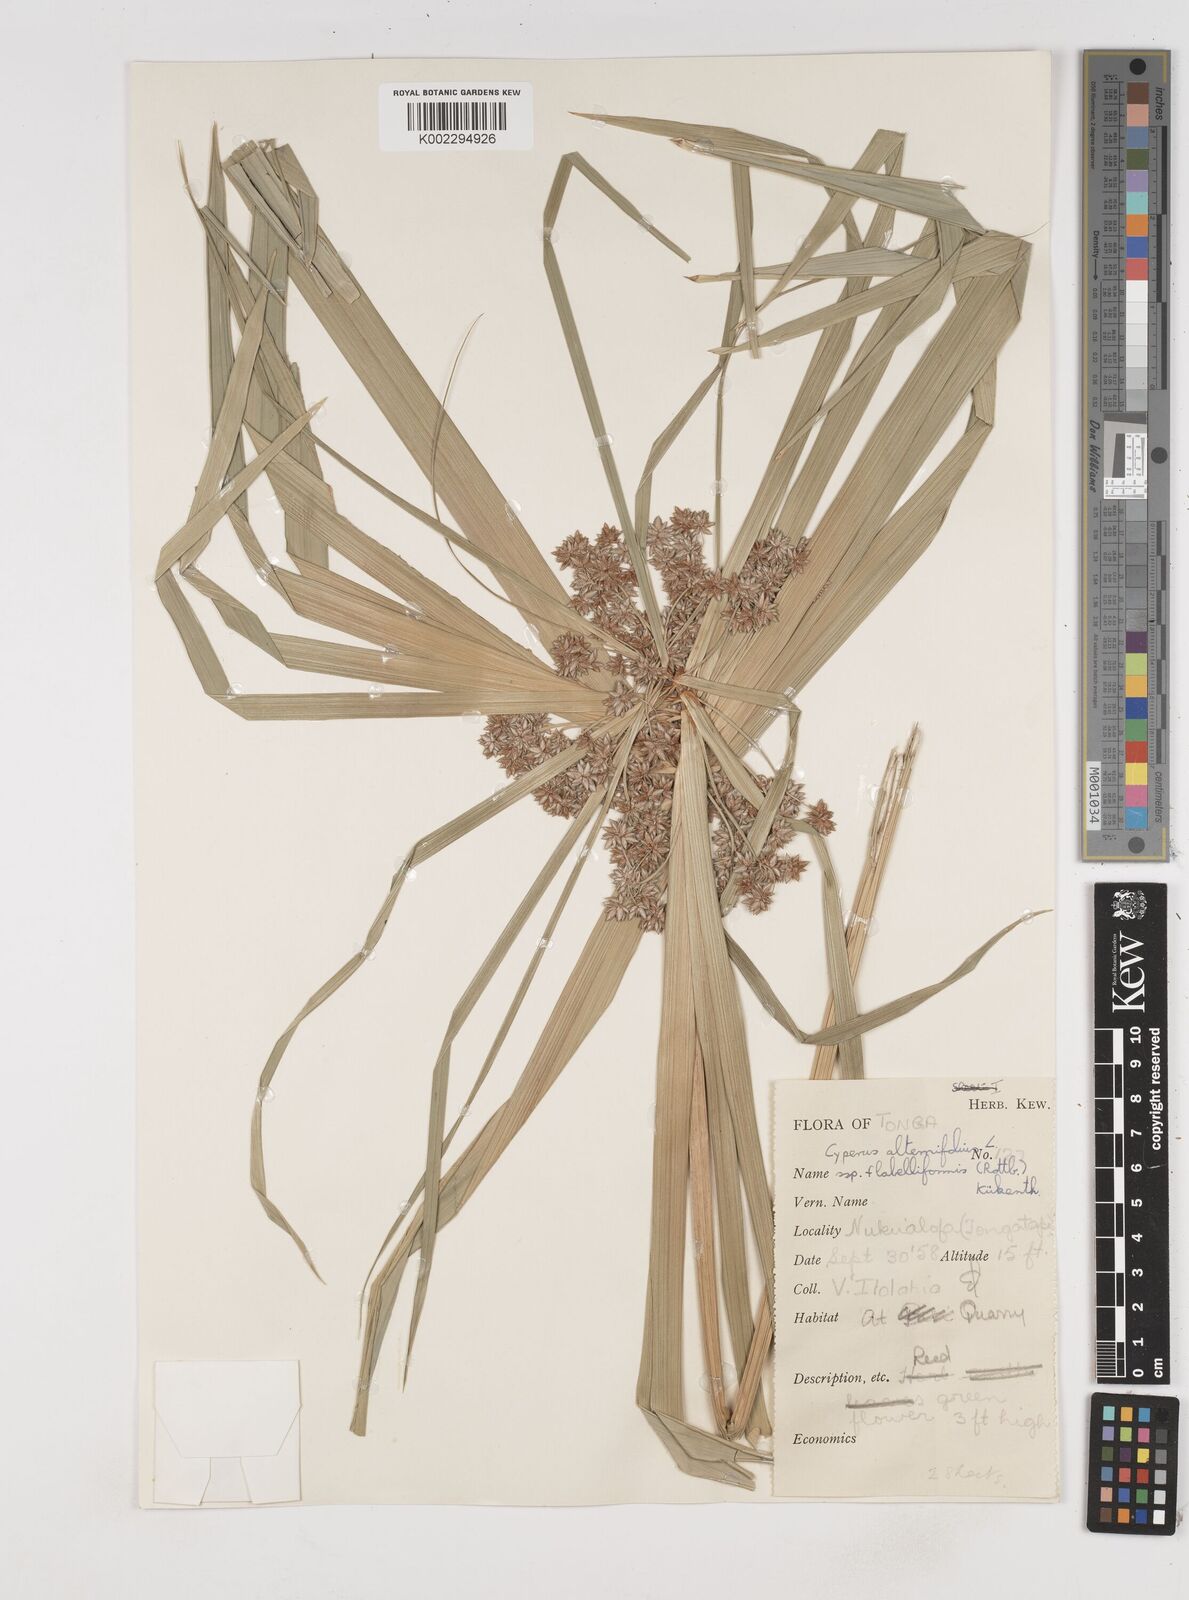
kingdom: Plantae
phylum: Tracheophyta
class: Liliopsida
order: Poales
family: Cyperaceae
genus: Cyperus
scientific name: Cyperus alternifolius
